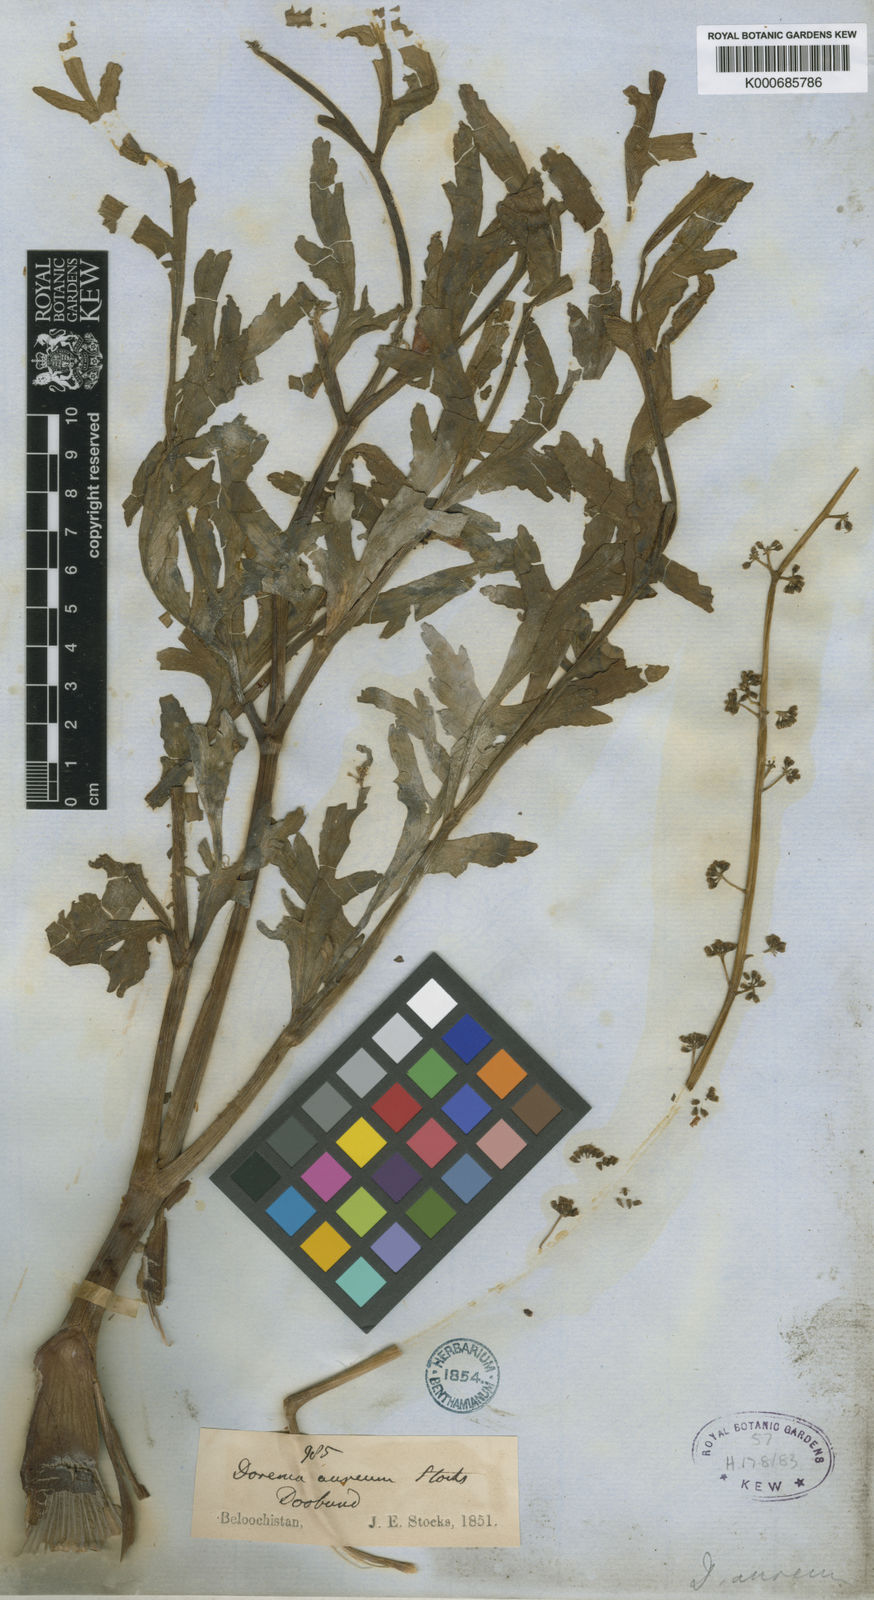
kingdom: Plantae
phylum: Tracheophyta
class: Magnoliopsida
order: Apiales
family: Apiaceae
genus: Ferula
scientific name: Ferula downieorum
